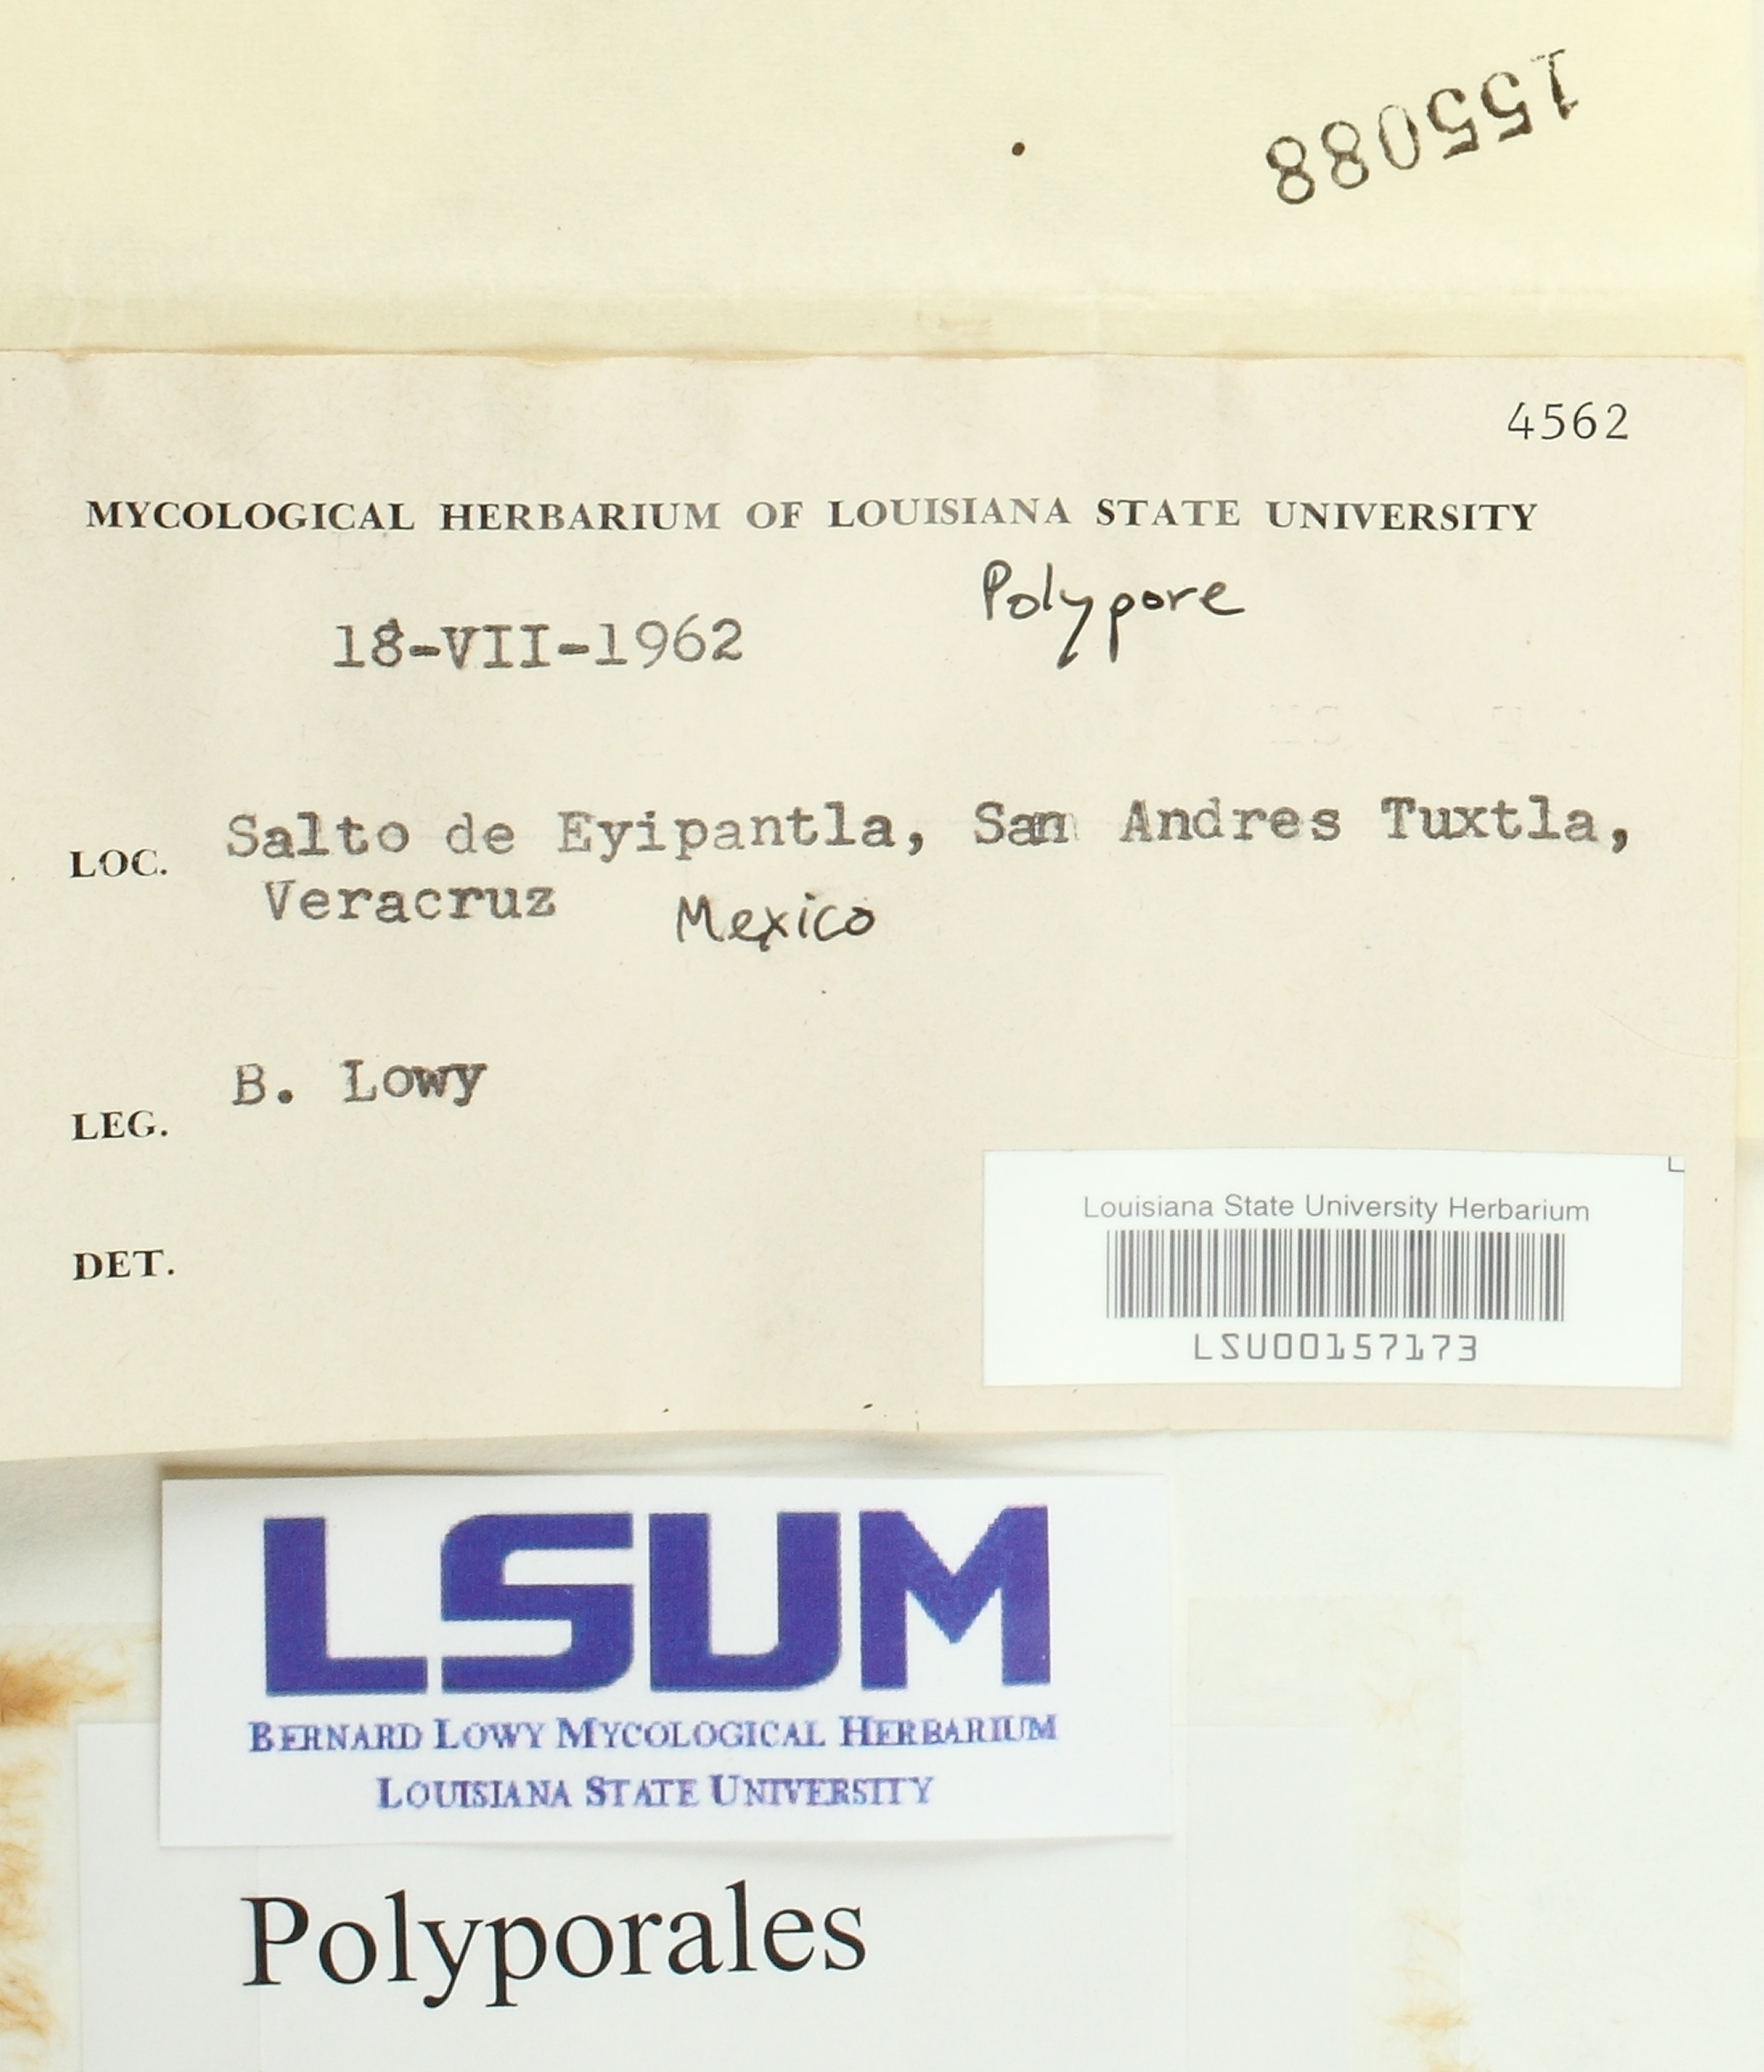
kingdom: Fungi
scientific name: Fungi
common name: Fungi
